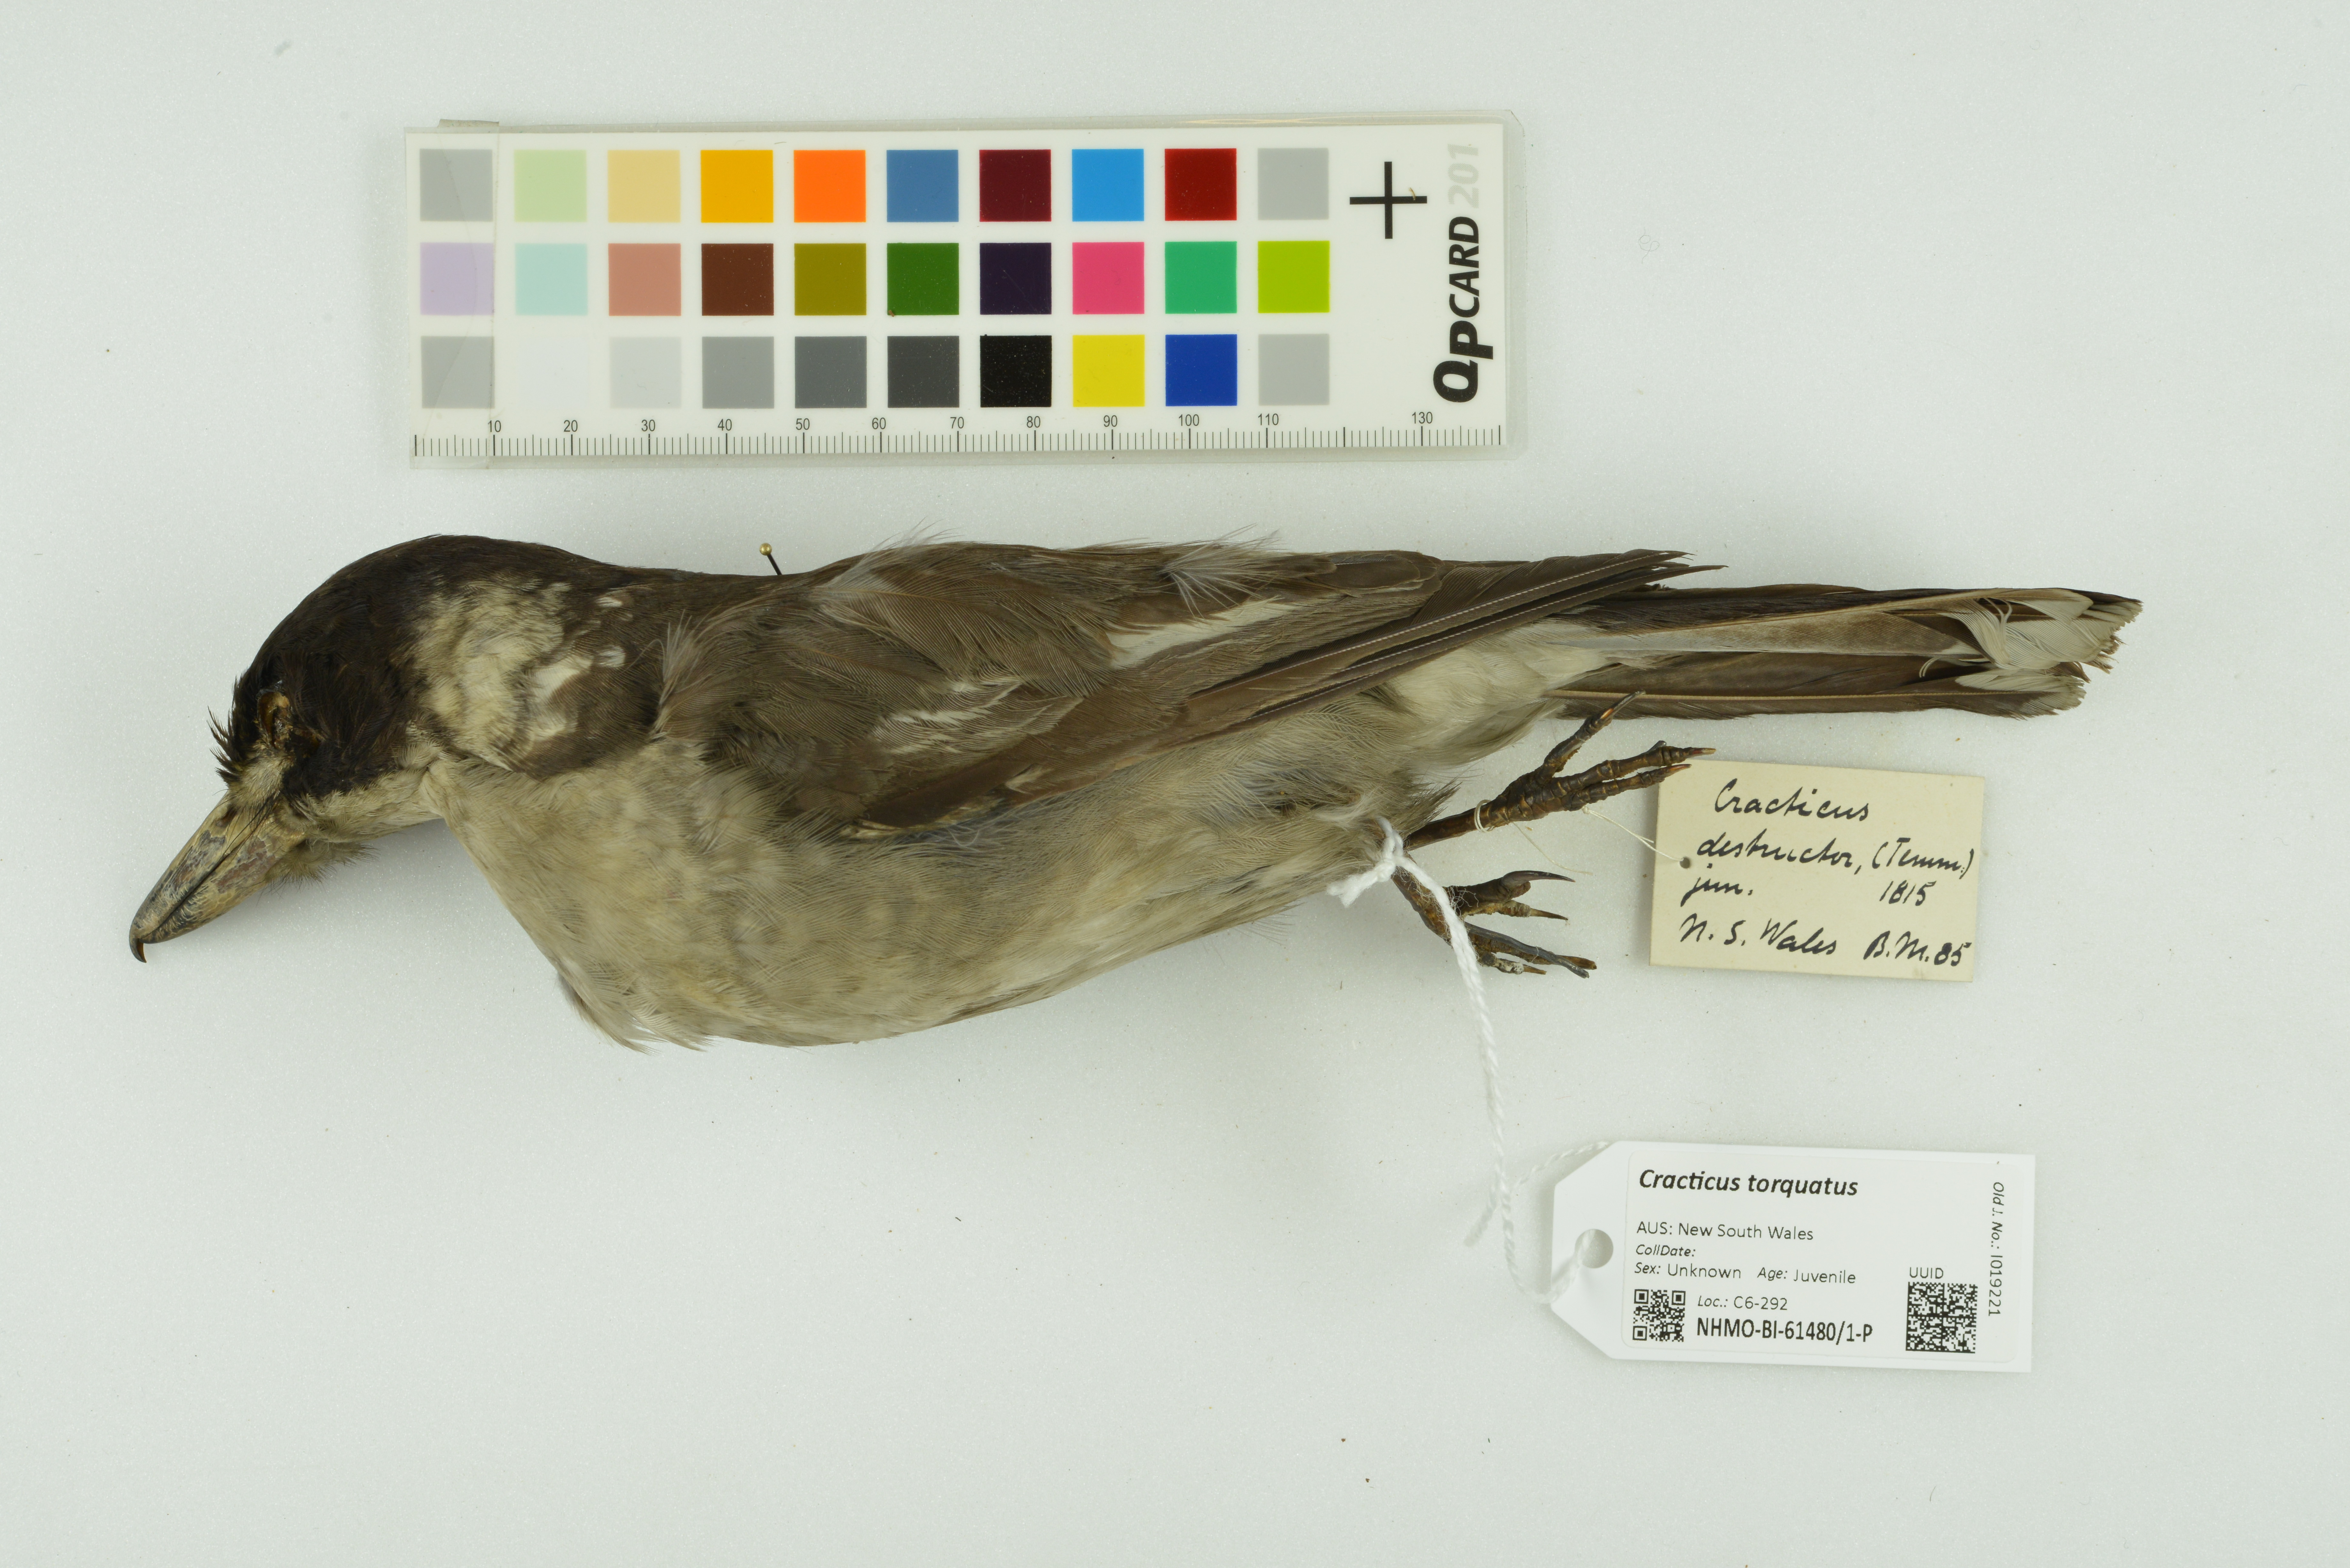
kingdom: Animalia
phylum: Chordata
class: Aves
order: Passeriformes
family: Cracticidae
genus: Cracticus
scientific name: Cracticus torquatus
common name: Grey butcherbird
